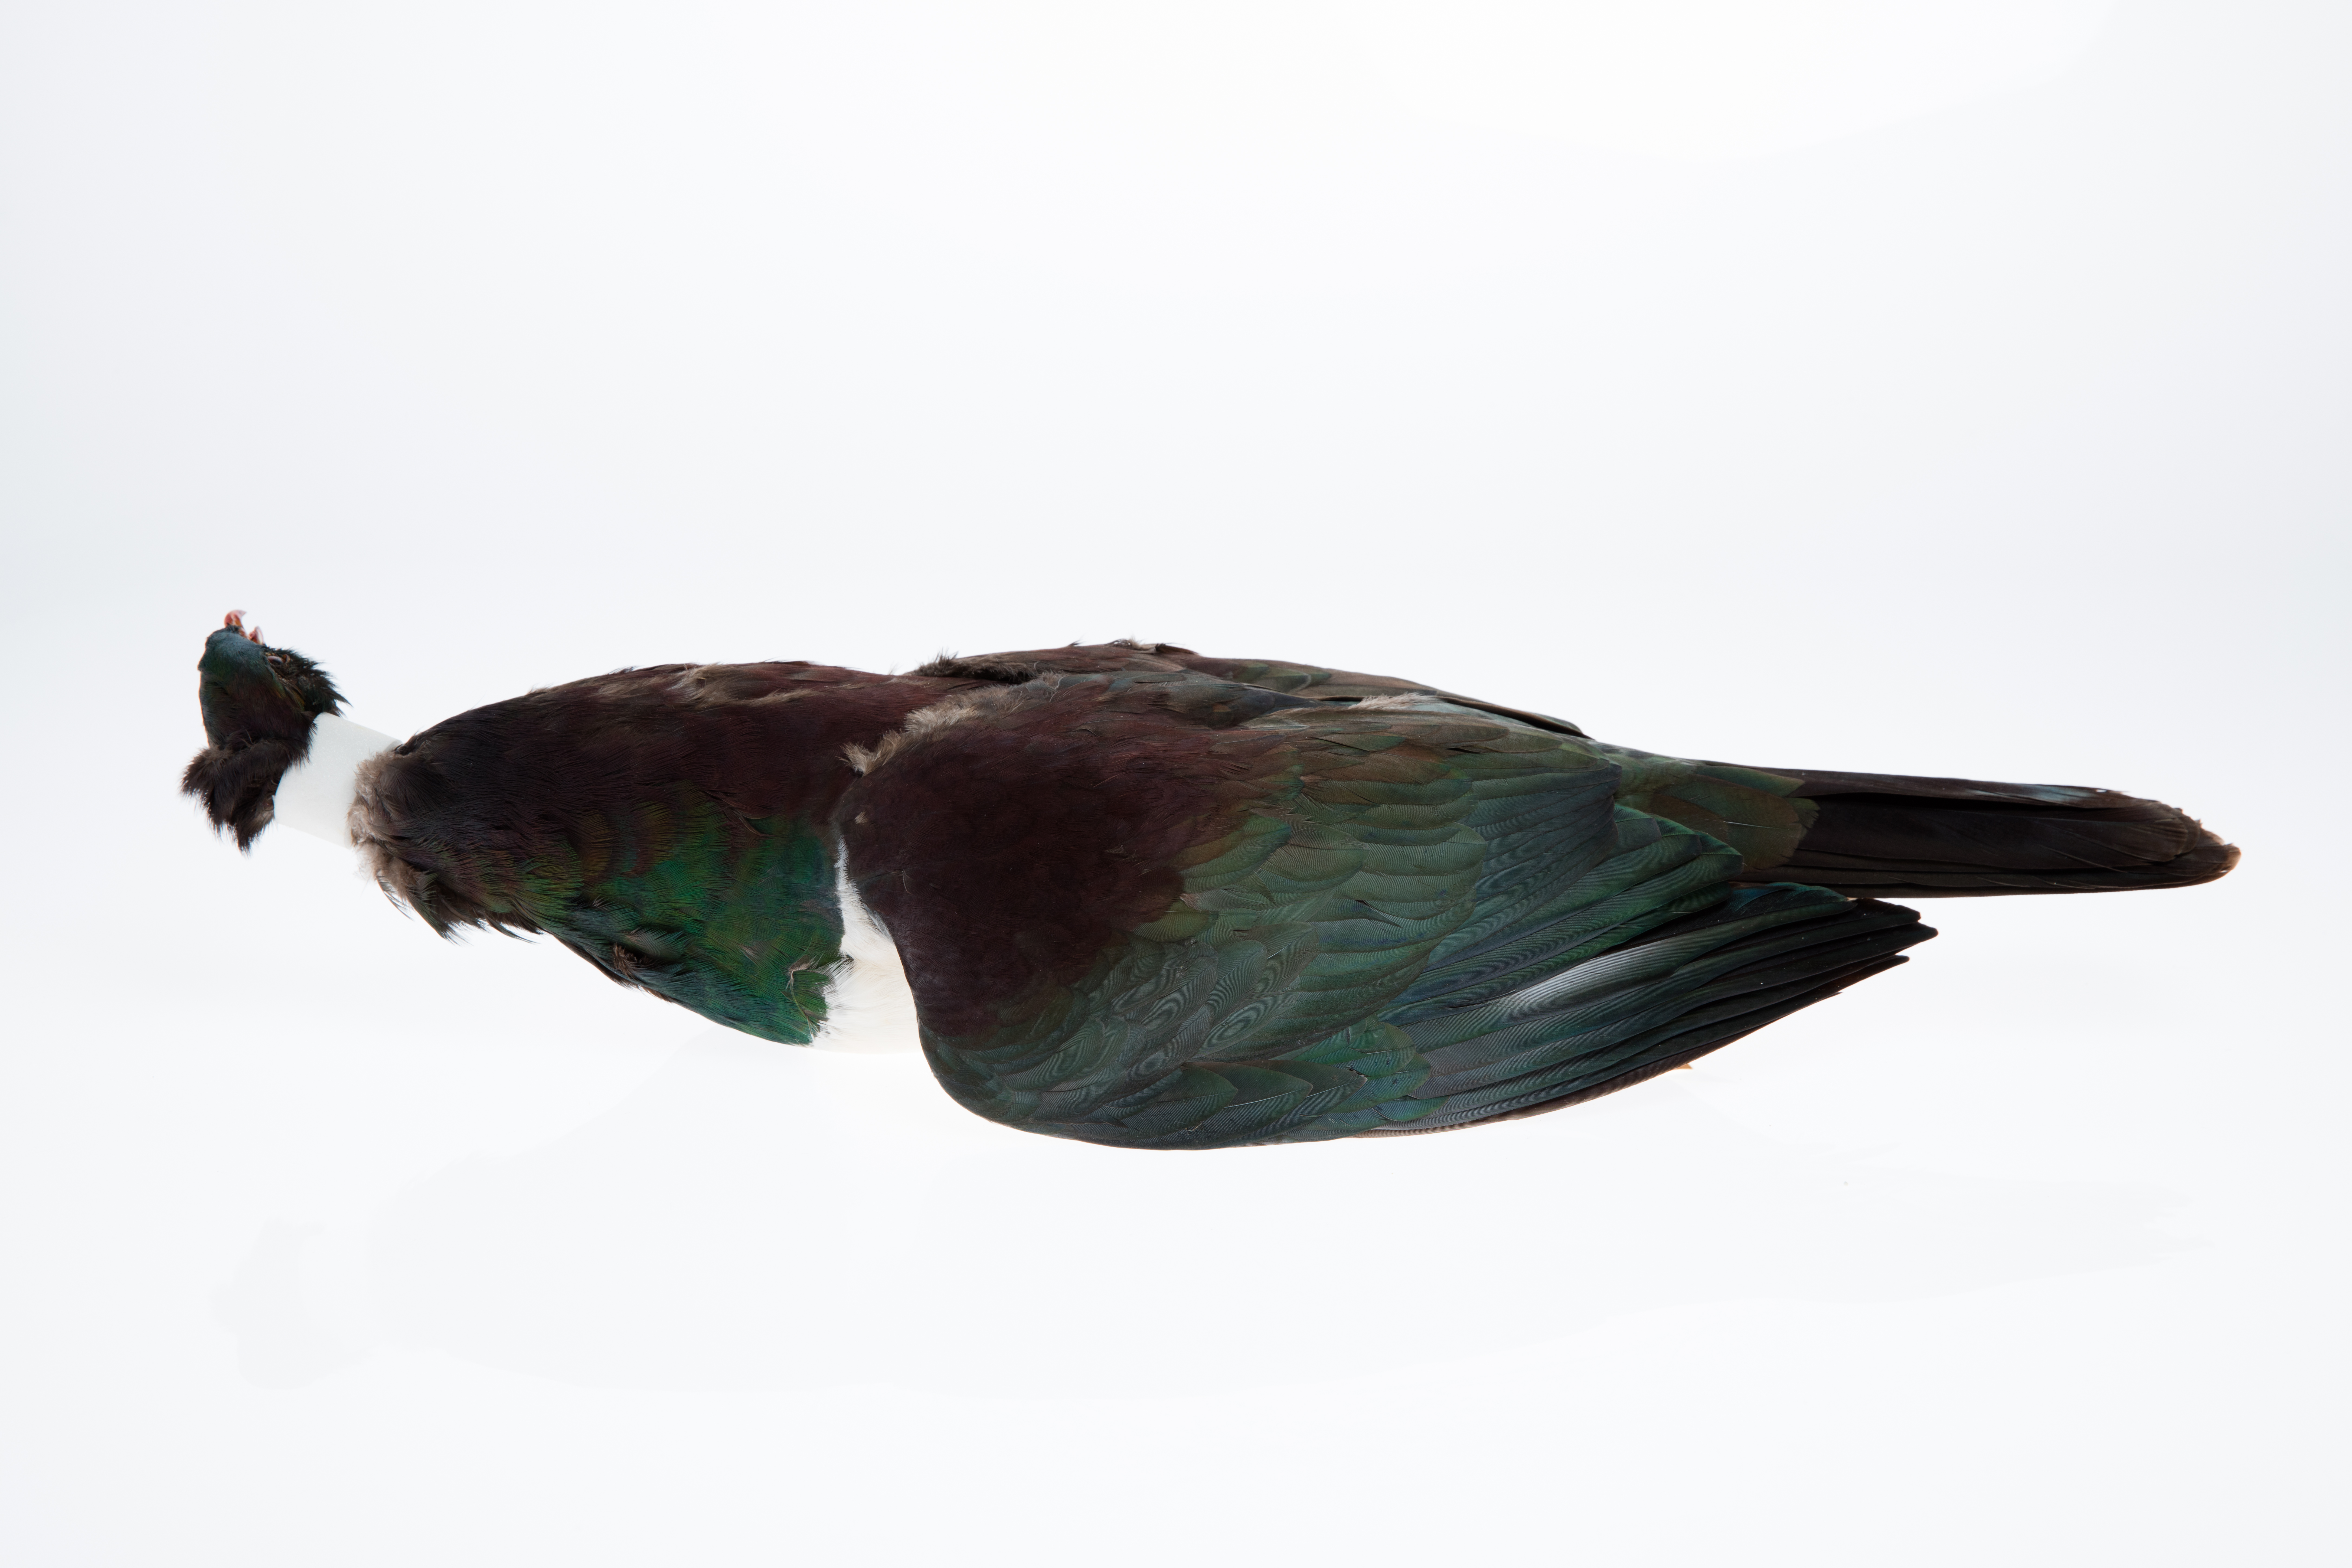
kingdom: Animalia
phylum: Chordata
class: Aves
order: Columbiformes
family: Columbidae
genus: Hemiphaga
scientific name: Hemiphaga novaeseelandiae
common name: New zealand pigeon
